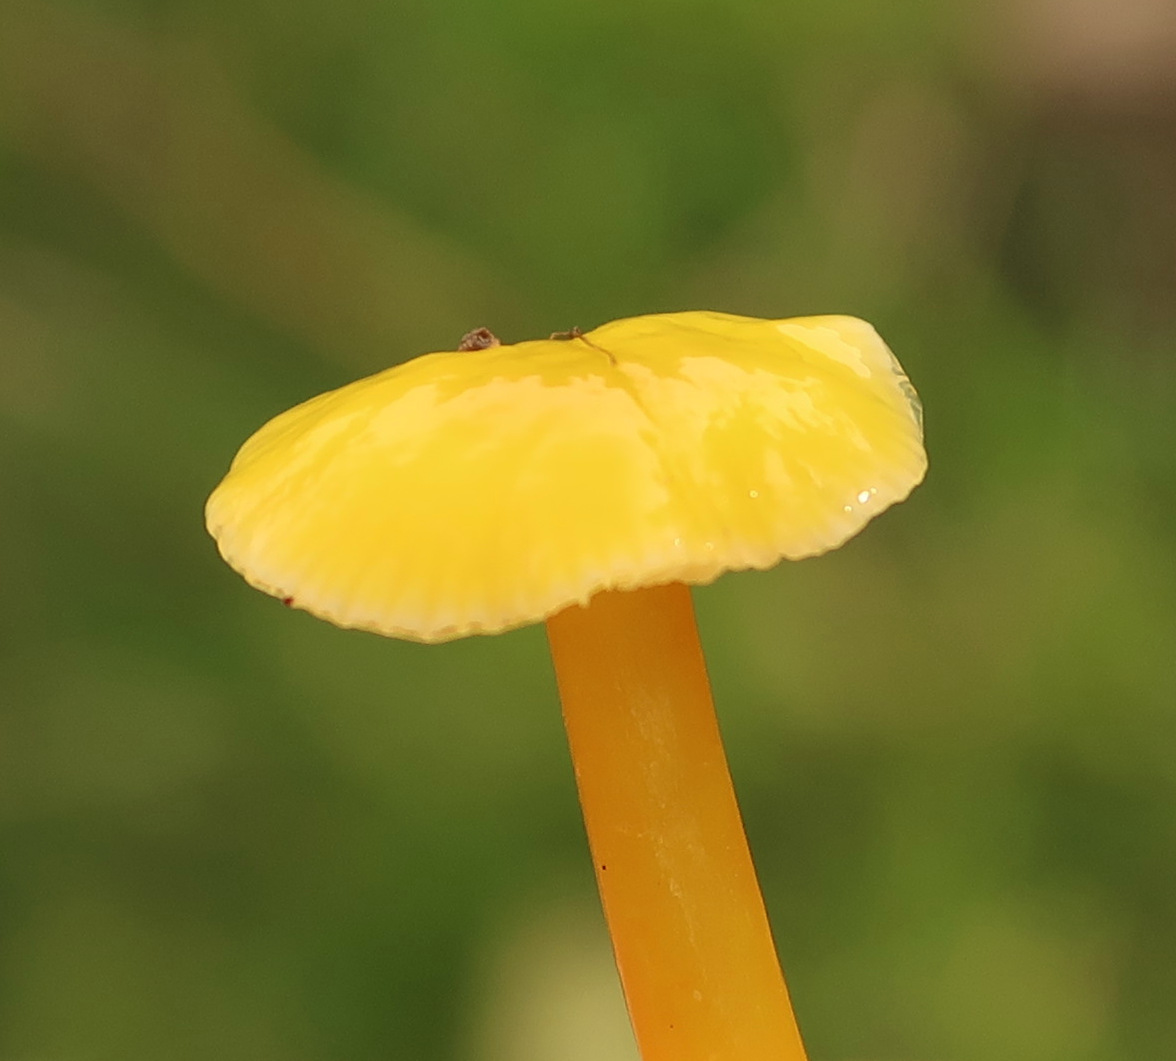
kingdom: Fungi
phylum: Basidiomycota
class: Agaricomycetes
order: Agaricales
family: Hygrophoraceae
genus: Hygrocybe
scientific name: Hygrocybe ceracea
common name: voksgul vokshat
